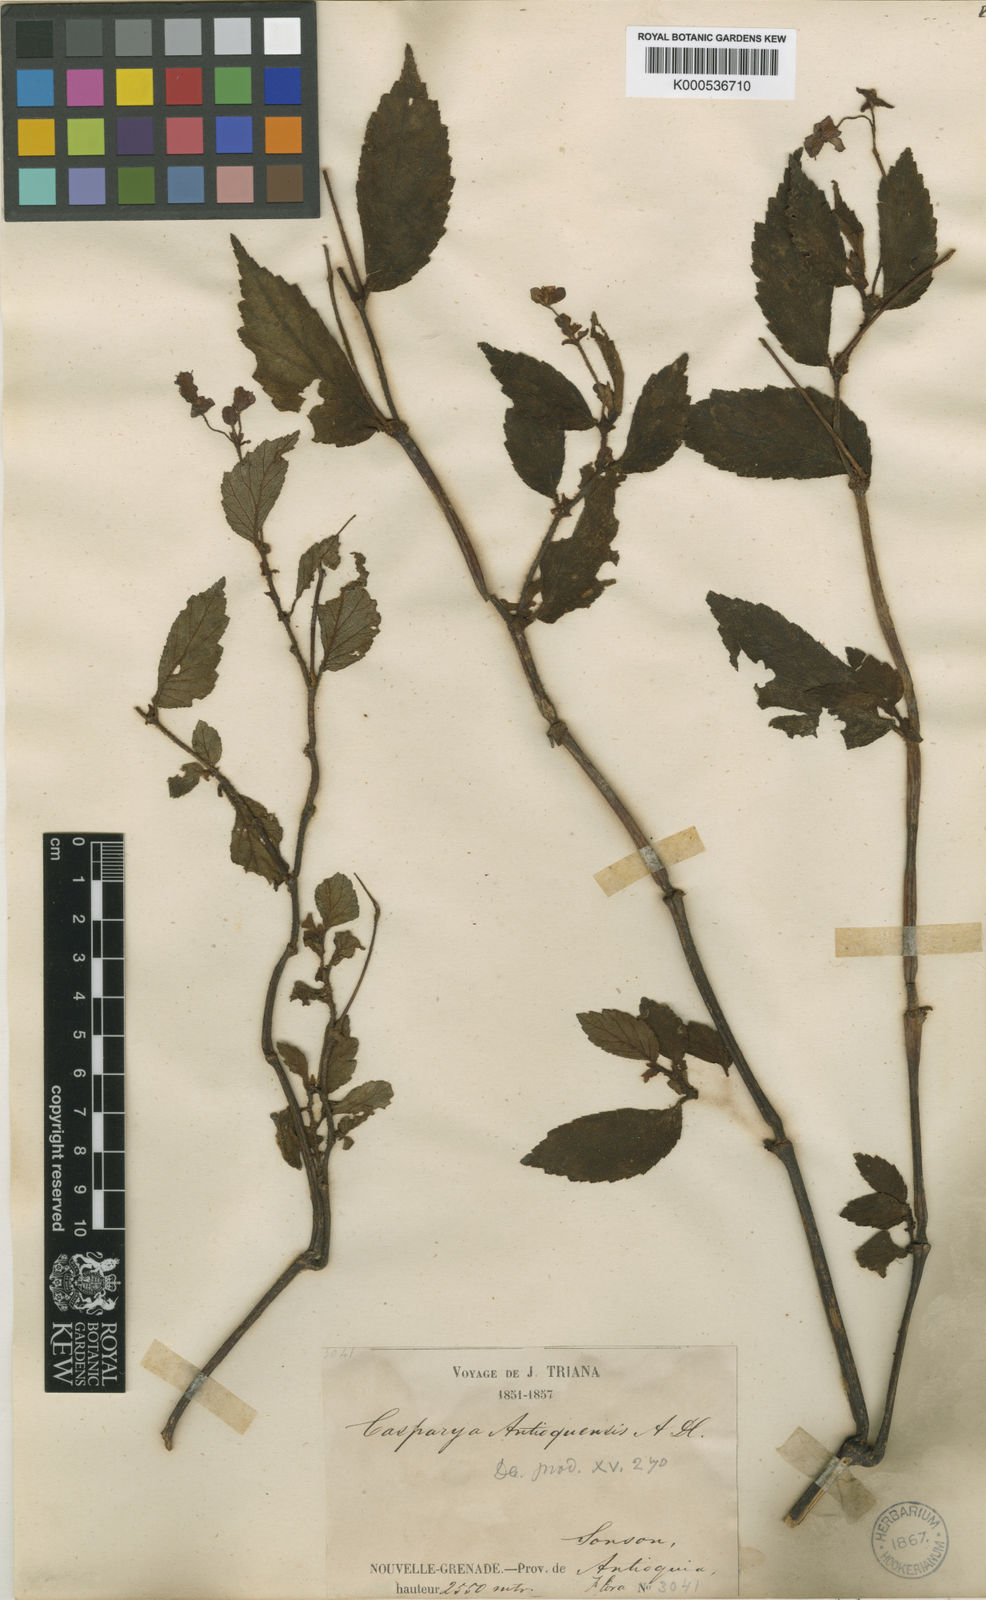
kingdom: Plantae
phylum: Tracheophyta
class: Magnoliopsida
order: Cucurbitales
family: Begoniaceae
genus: Begonia
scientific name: Begonia urticae
